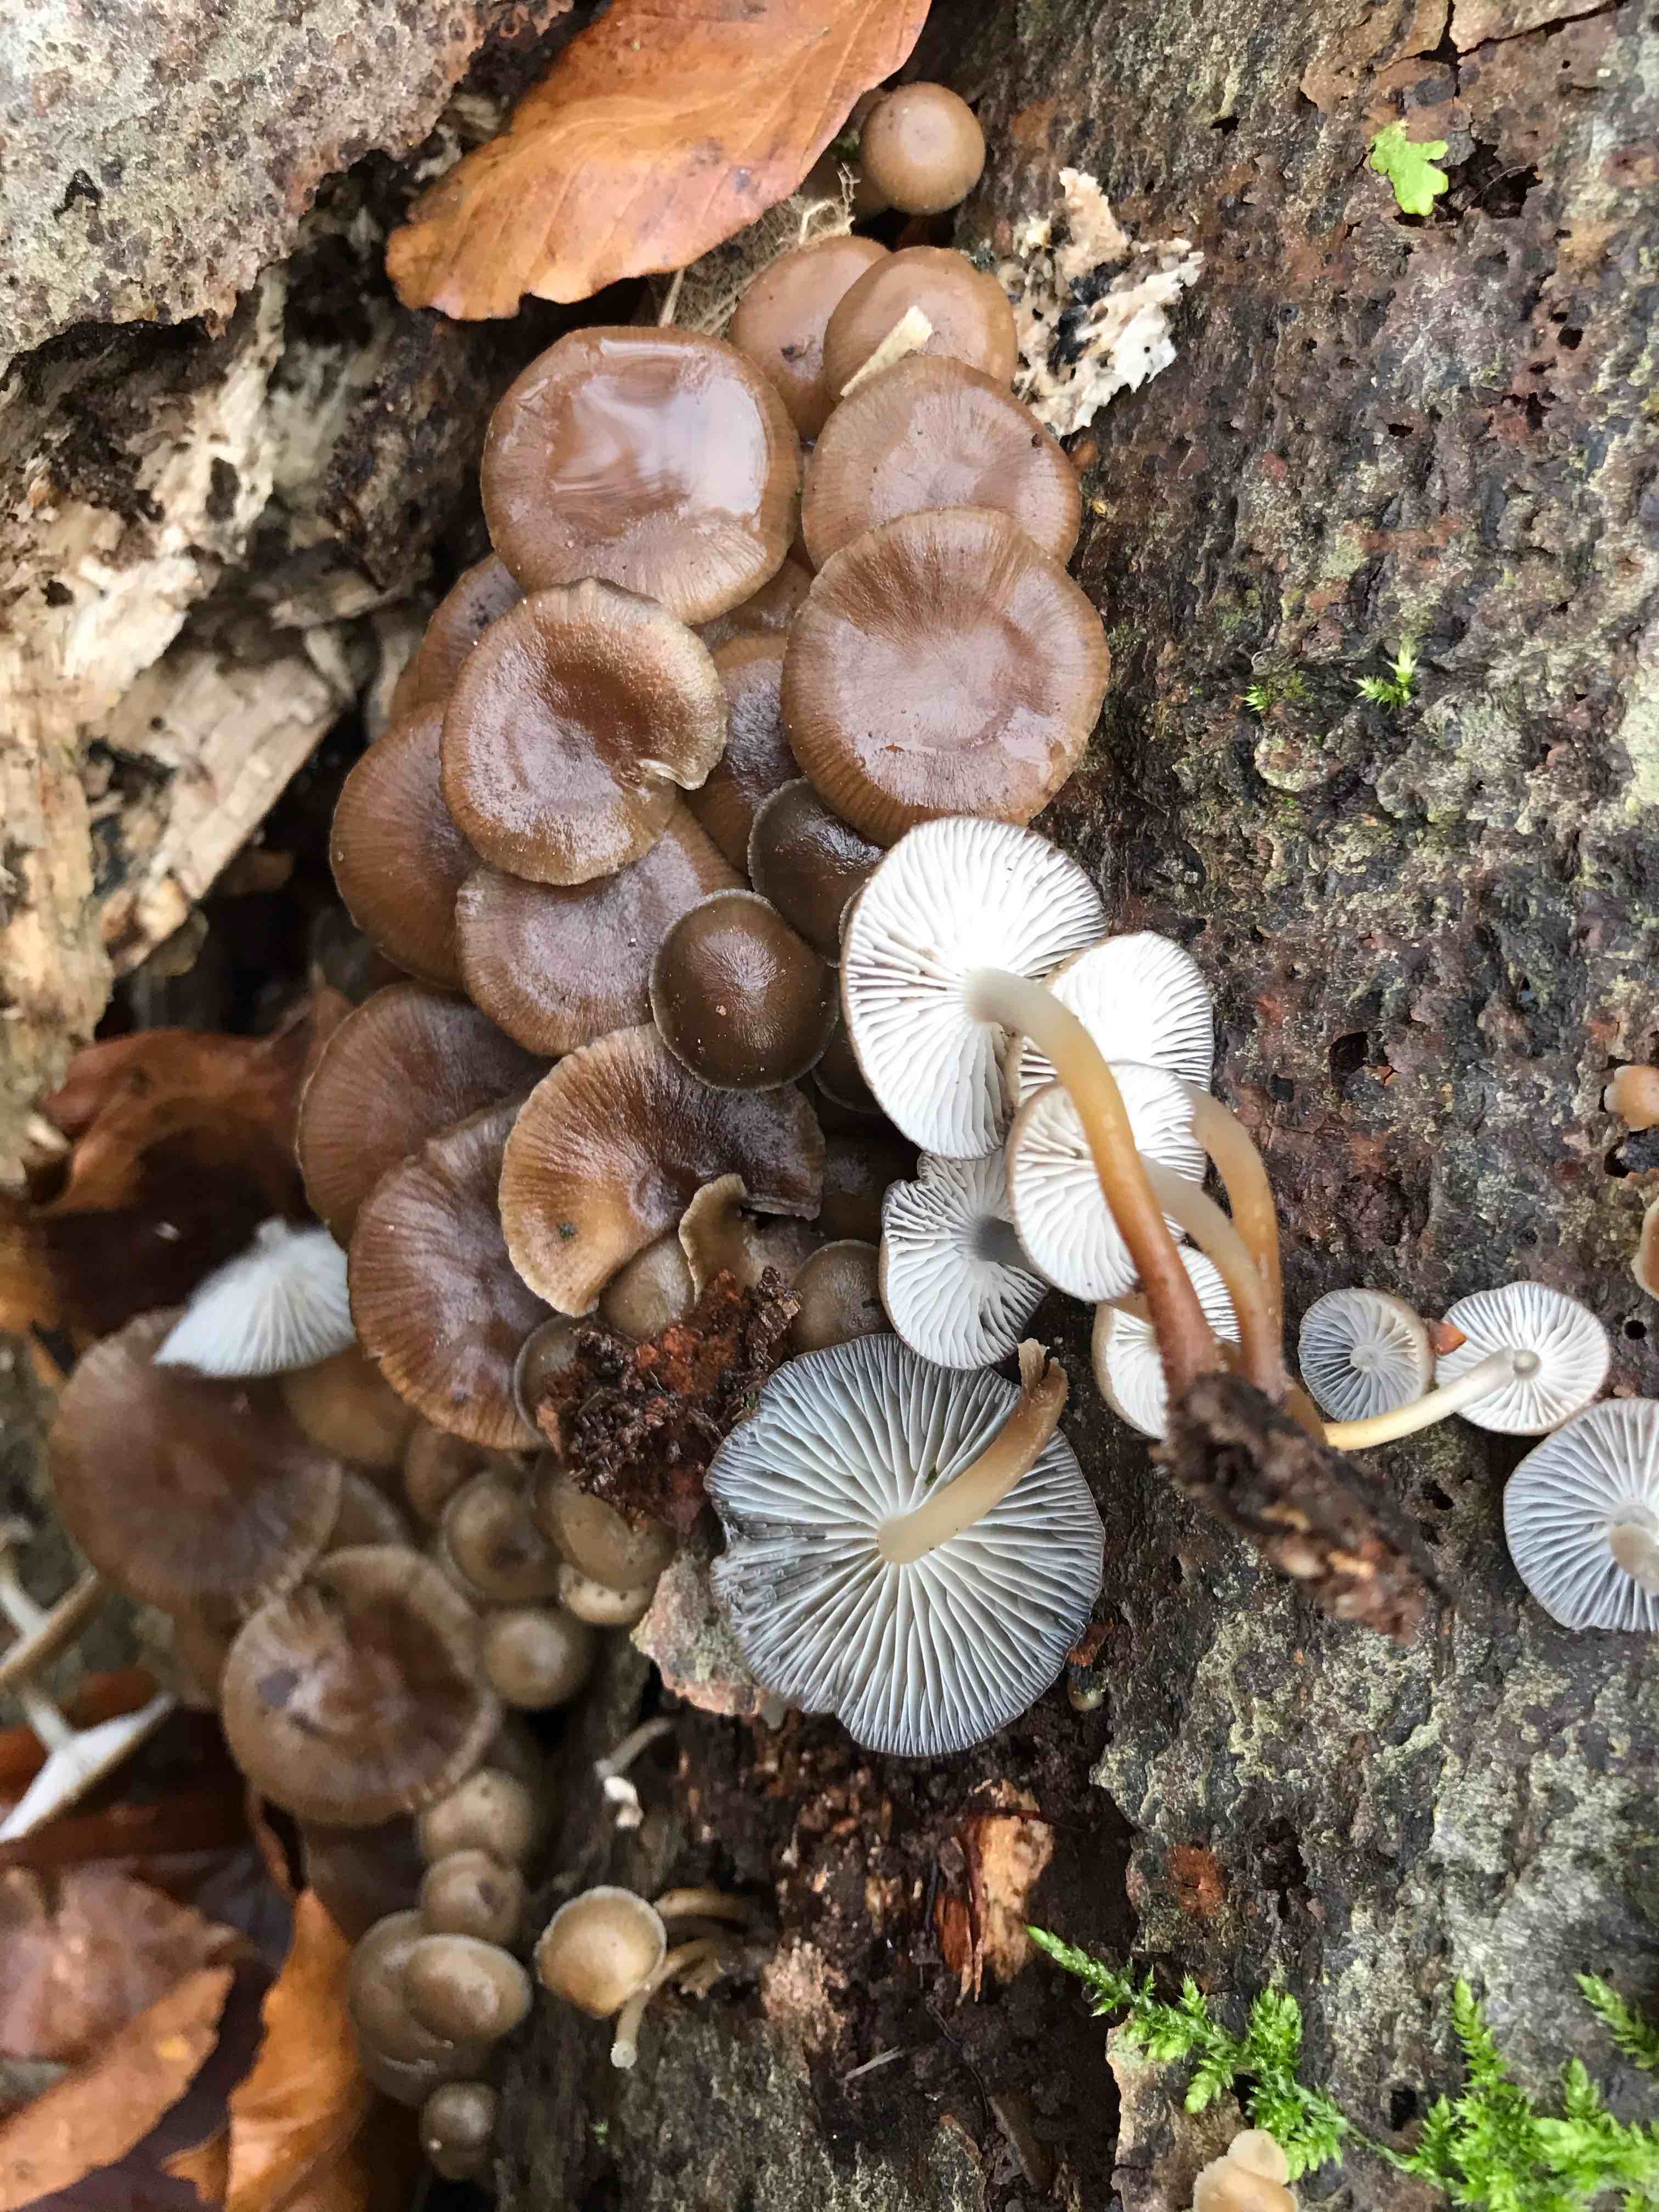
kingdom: Fungi
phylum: Basidiomycota
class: Agaricomycetes
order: Agaricales
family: Mycenaceae
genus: Mycena
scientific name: Mycena tintinnabulum
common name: vinter-huesvamp
